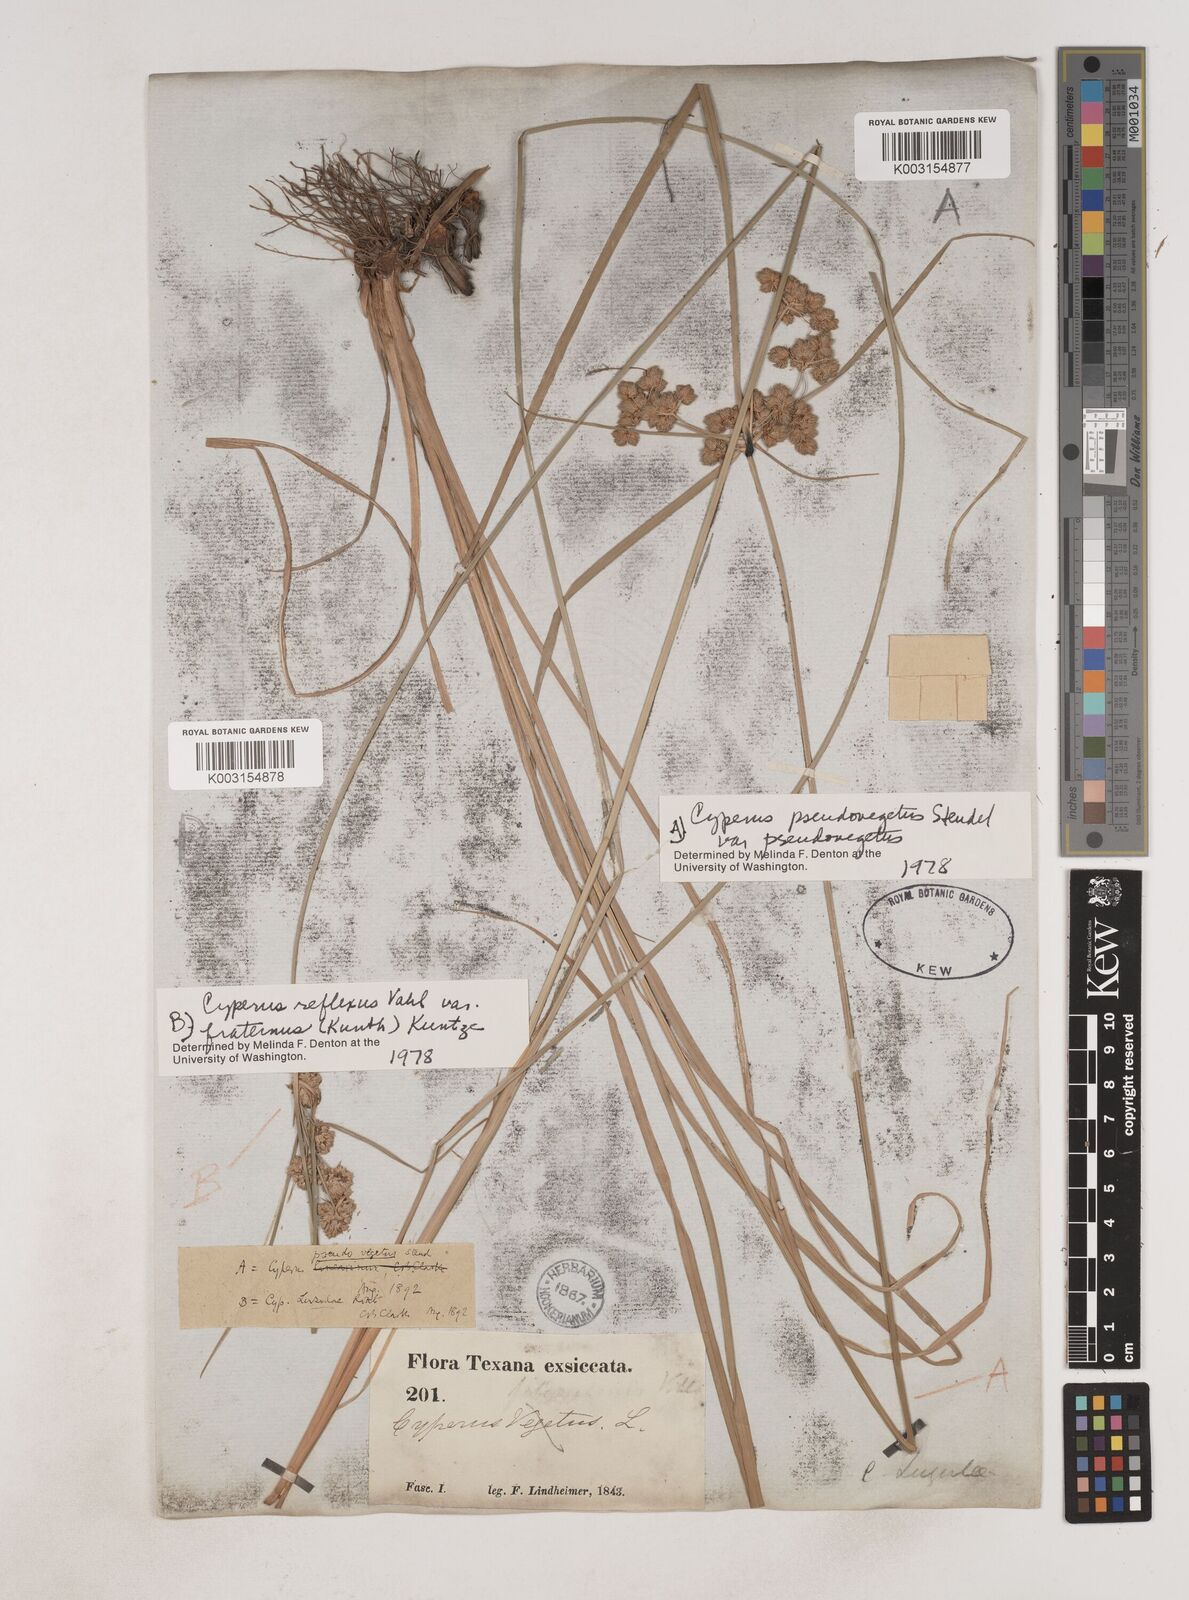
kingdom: Plantae
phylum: Tracheophyta
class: Liliopsida
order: Poales
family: Cyperaceae
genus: Cyperus
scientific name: Cyperus reflexus
